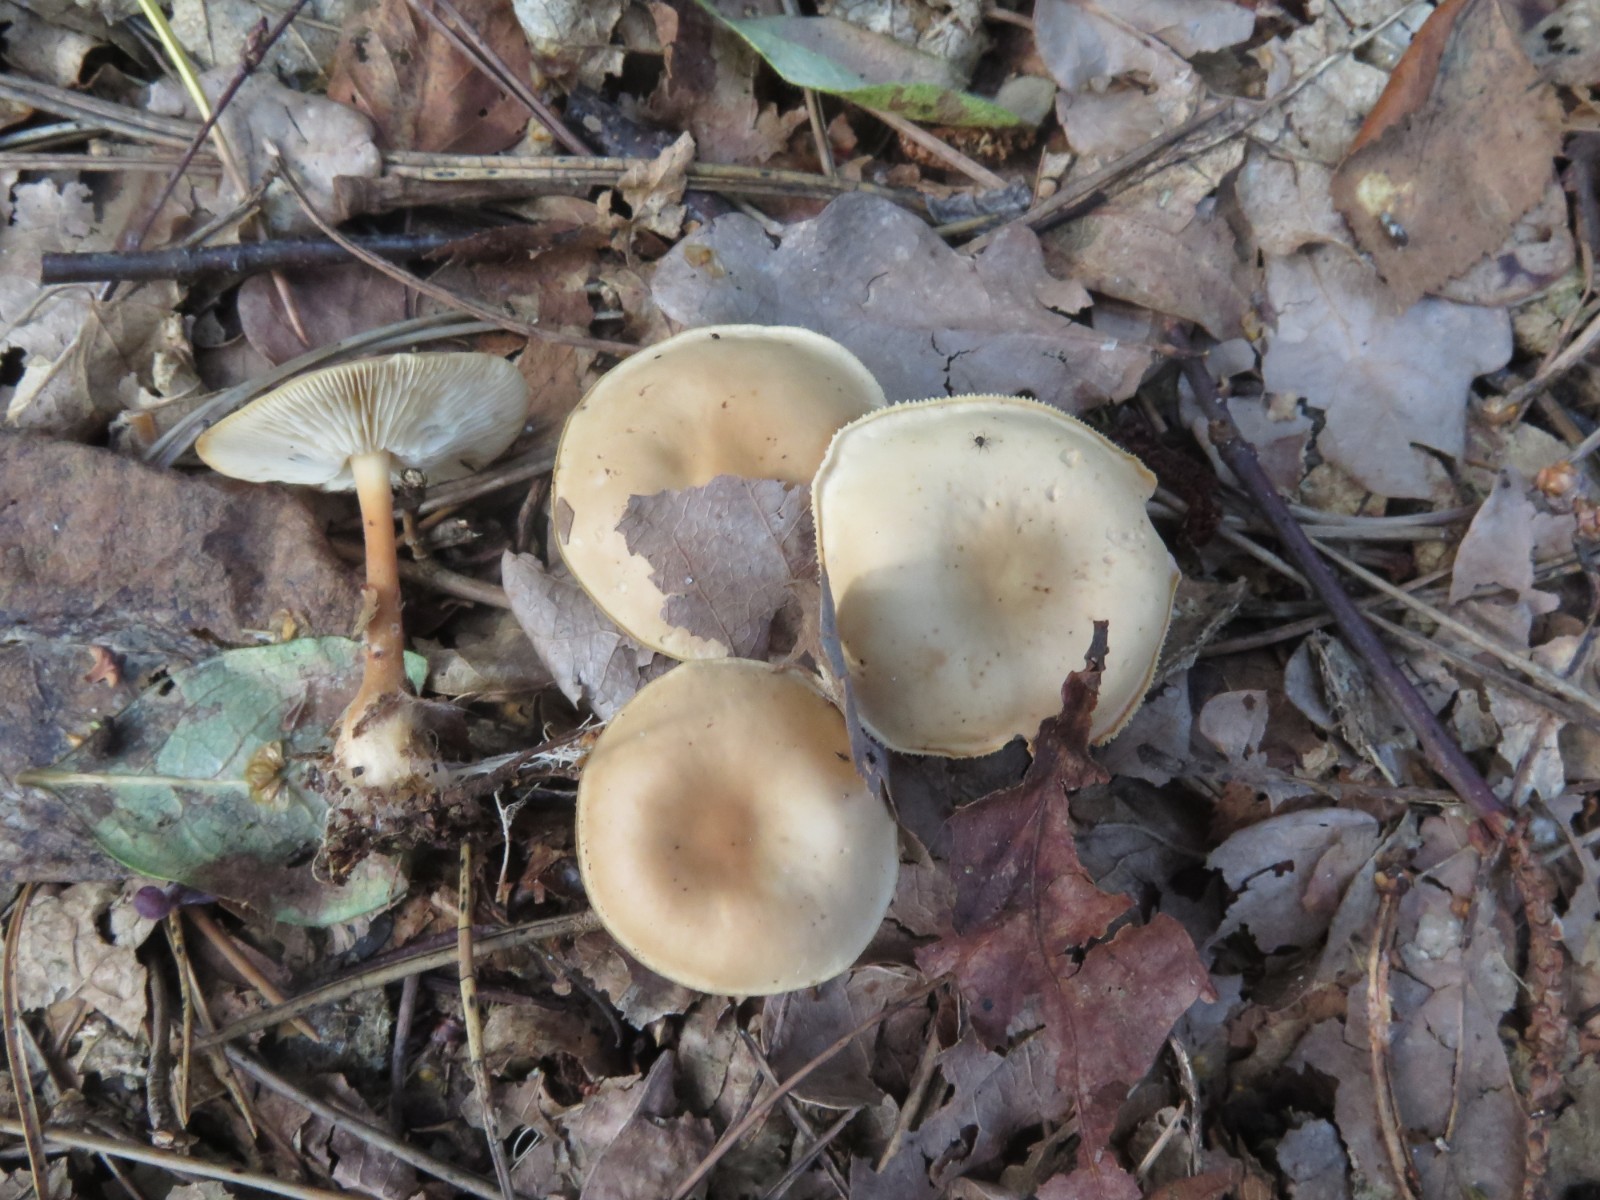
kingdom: Fungi
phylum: Basidiomycota
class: Agaricomycetes
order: Agaricales
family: Omphalotaceae
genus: Gymnopus
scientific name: Gymnopus dryophilus
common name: løv-fladhat
